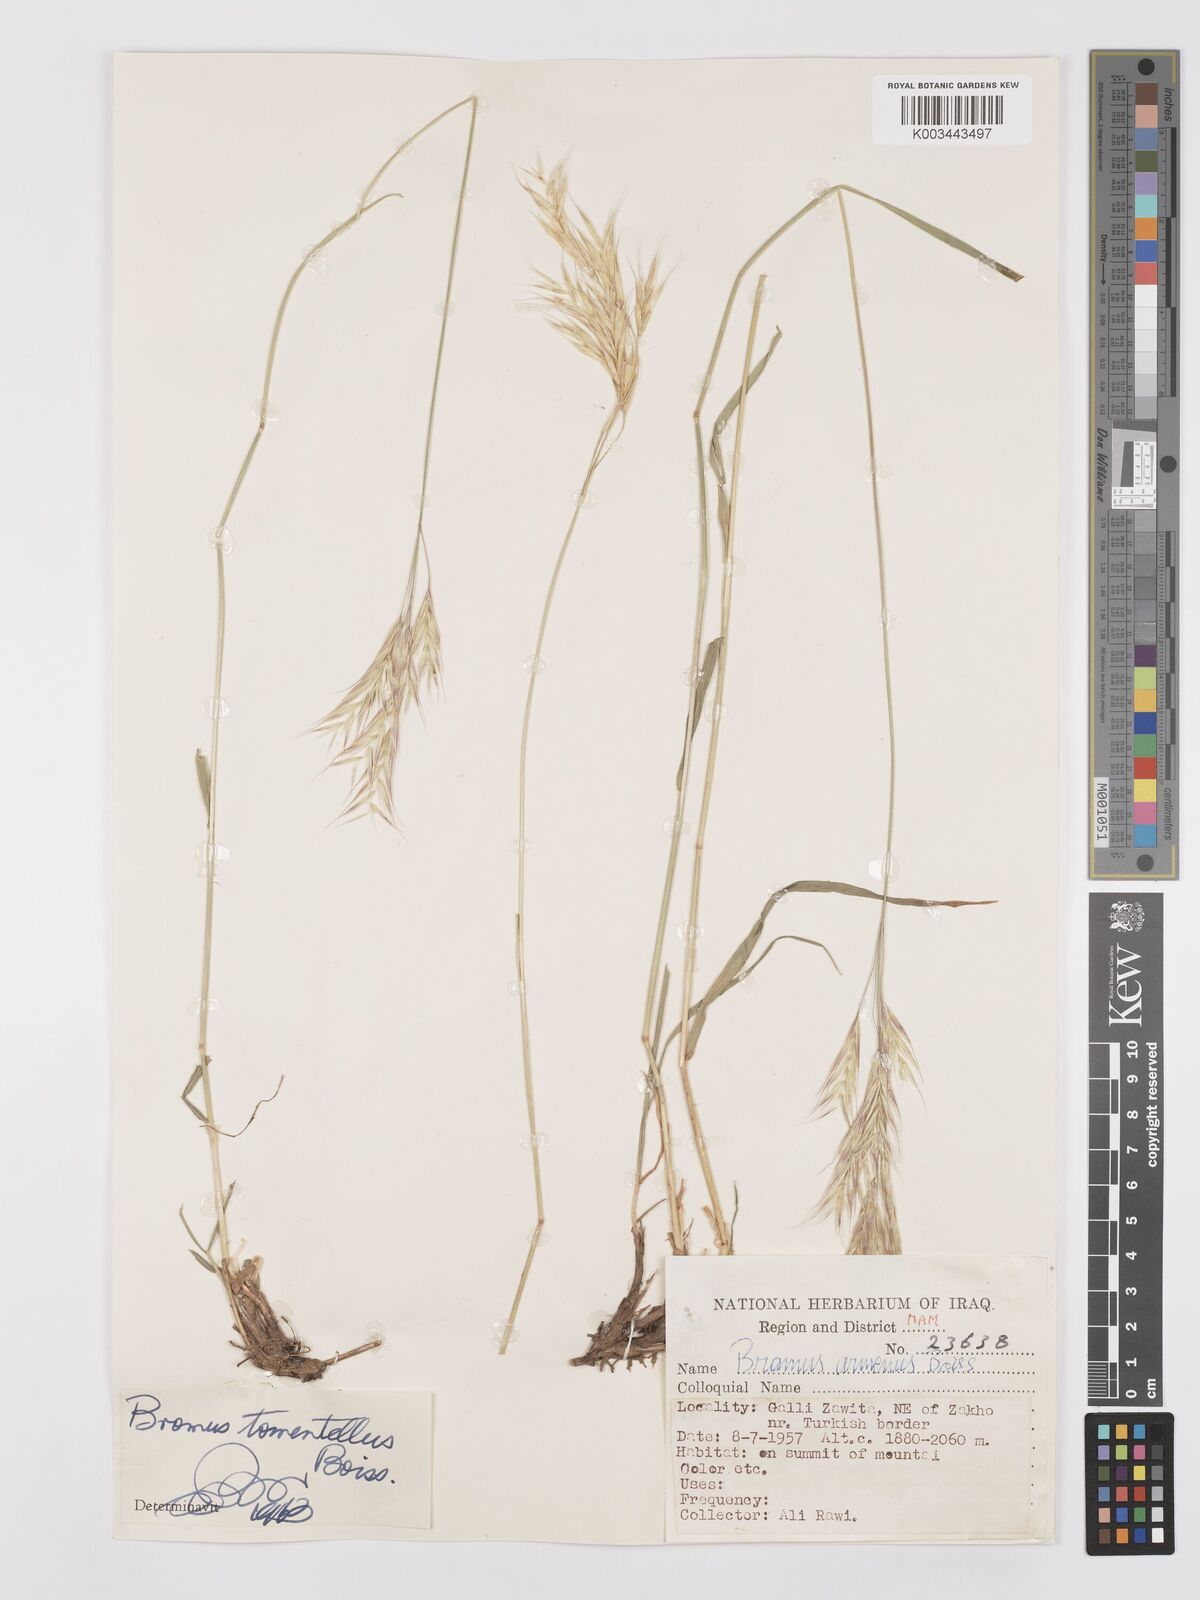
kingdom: Plantae
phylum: Tracheophyta
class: Liliopsida
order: Poales
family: Poaceae
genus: Bromus
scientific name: Bromus tomentellus
